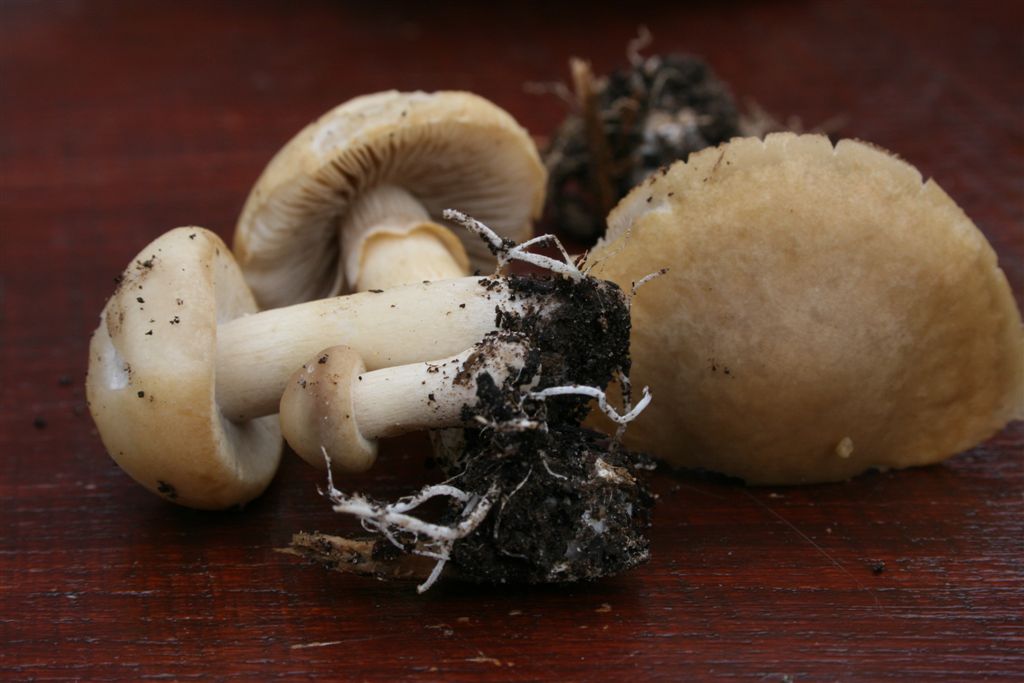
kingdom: Fungi
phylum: Basidiomycota
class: Agaricomycetes
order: Agaricales
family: Strophariaceae
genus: Agrocybe
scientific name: Agrocybe praecox
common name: tidlig agerhat
